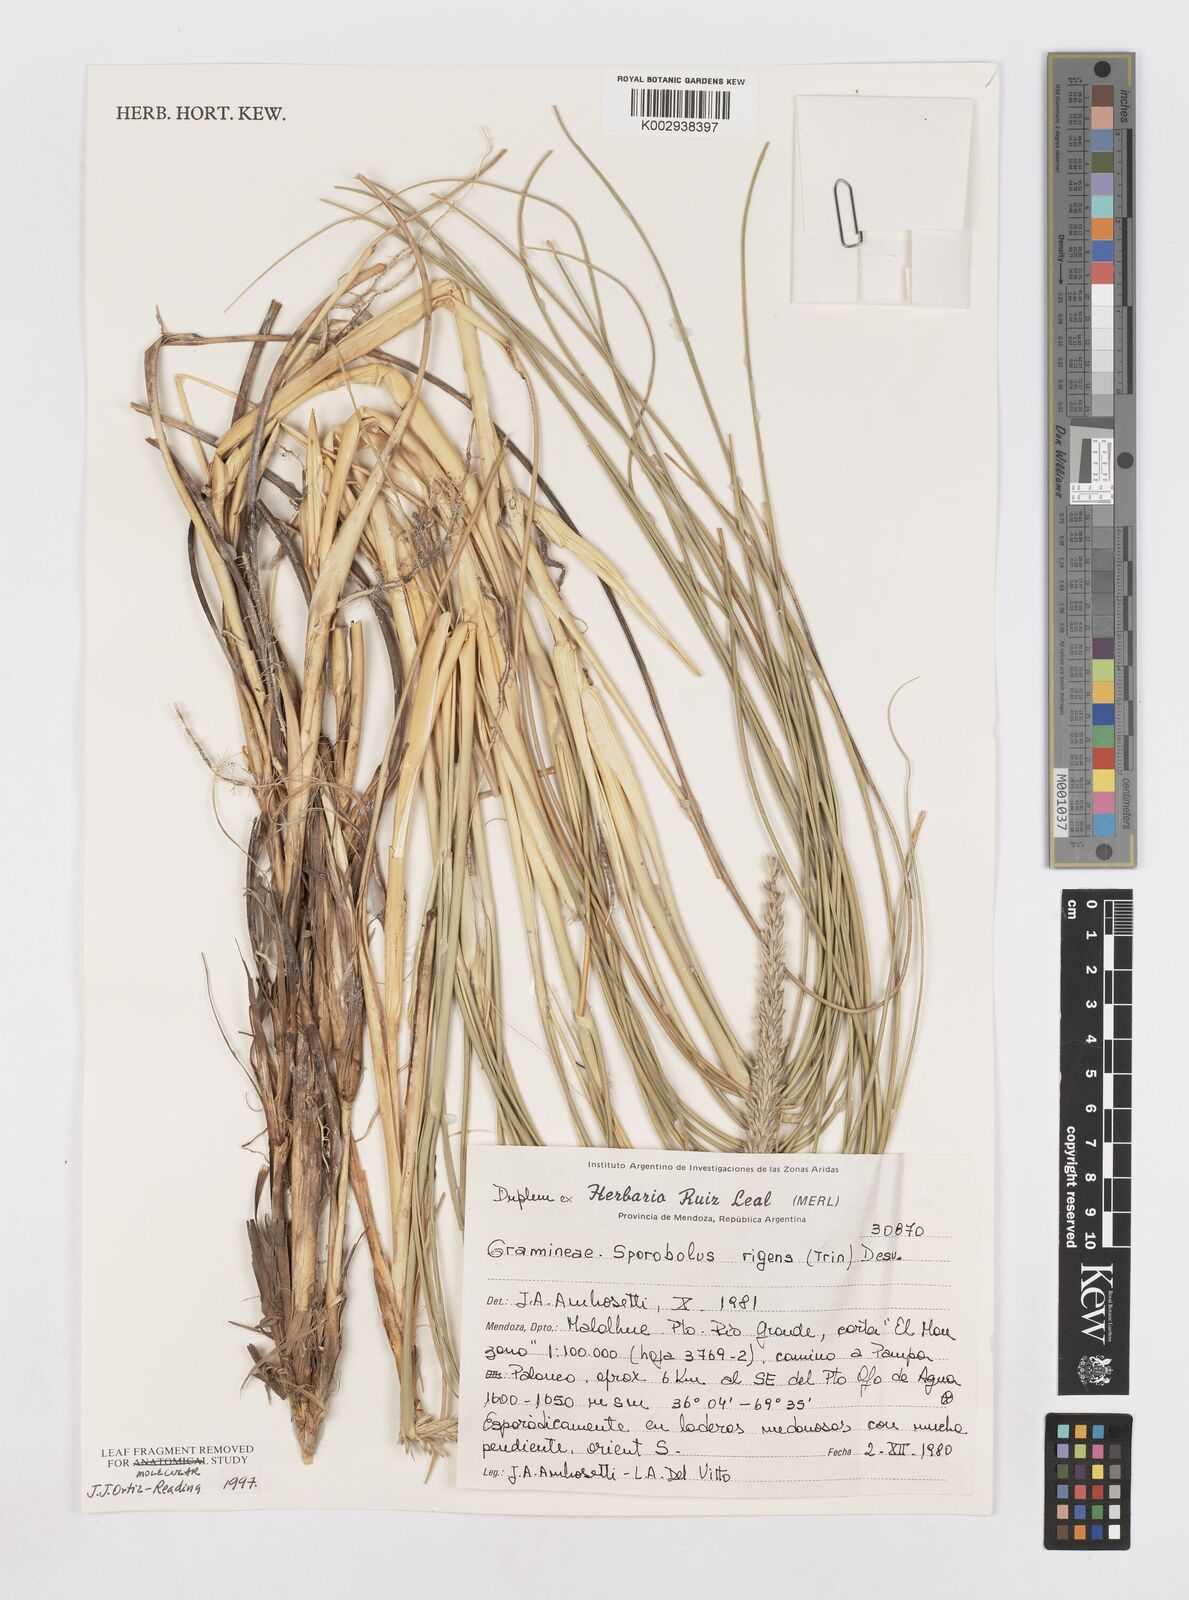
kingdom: Plantae
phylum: Tracheophyta
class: Liliopsida
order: Poales
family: Poaceae
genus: Sporobolus
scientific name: Sporobolus rigens
